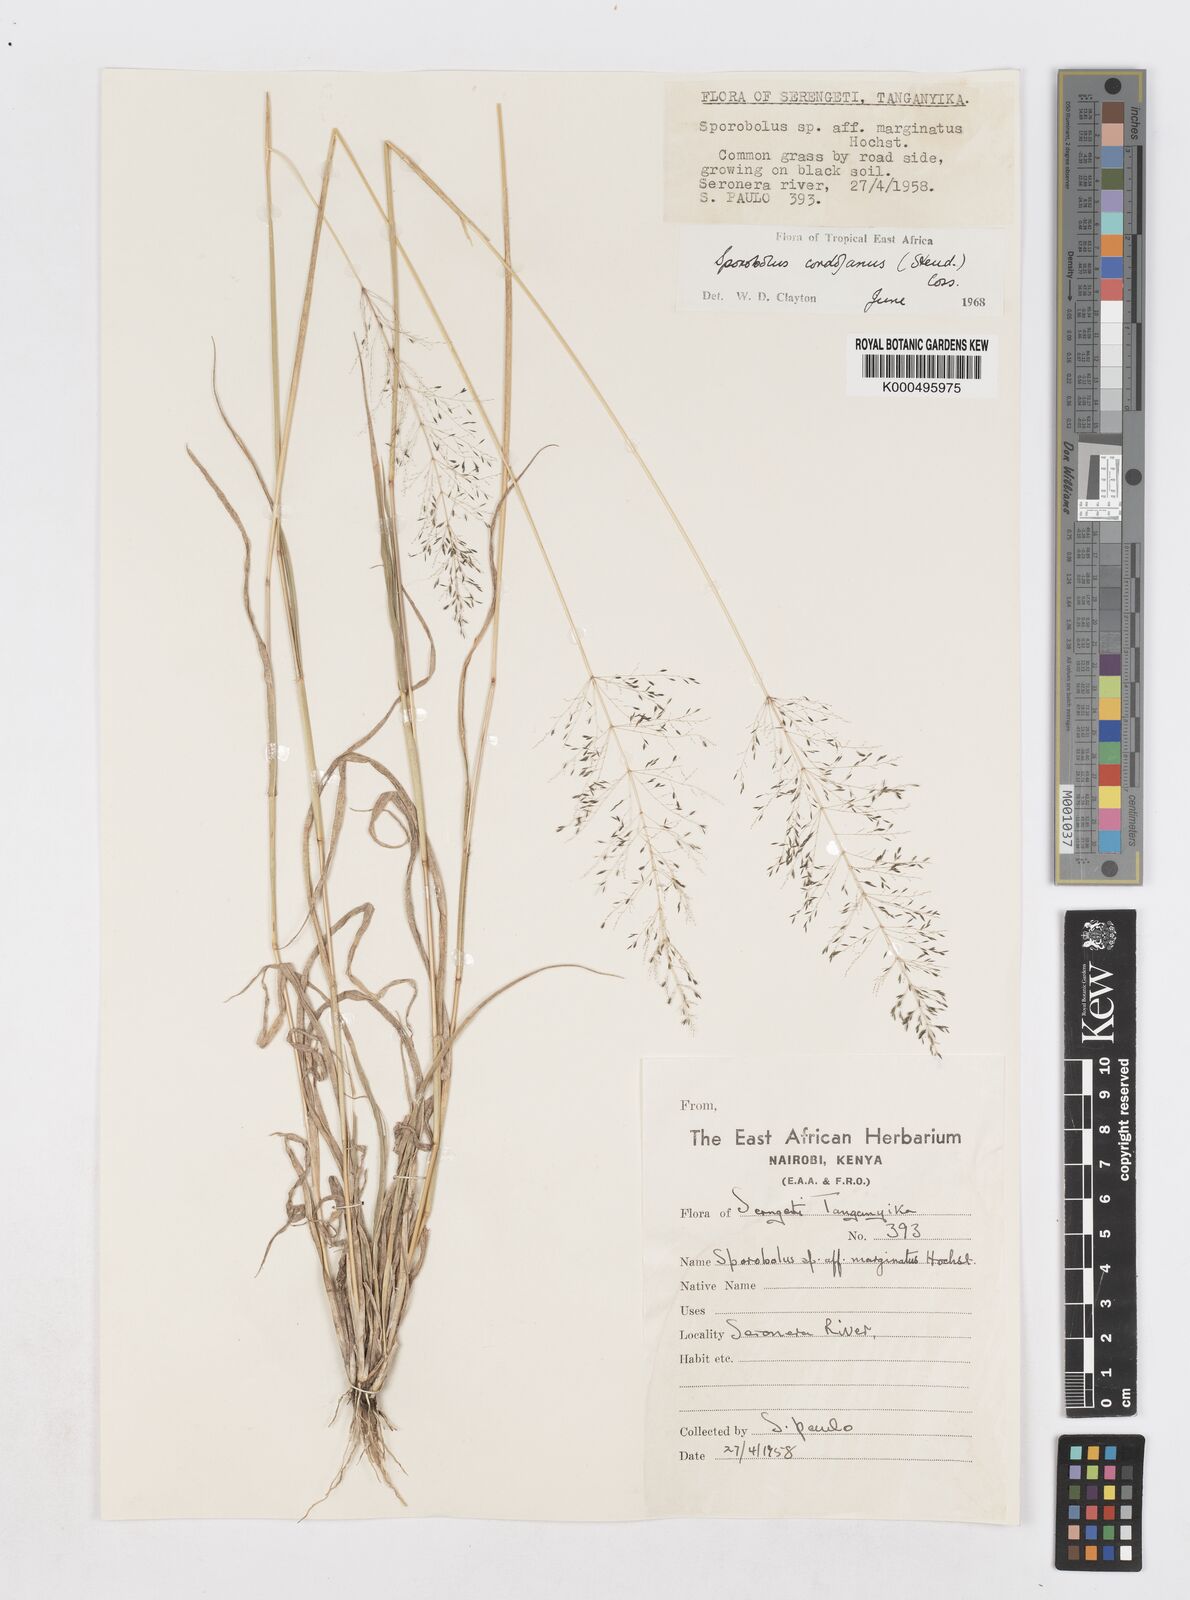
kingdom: Plantae
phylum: Tracheophyta
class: Liliopsida
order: Poales
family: Poaceae
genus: Sporobolus
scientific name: Sporobolus cordofanus
